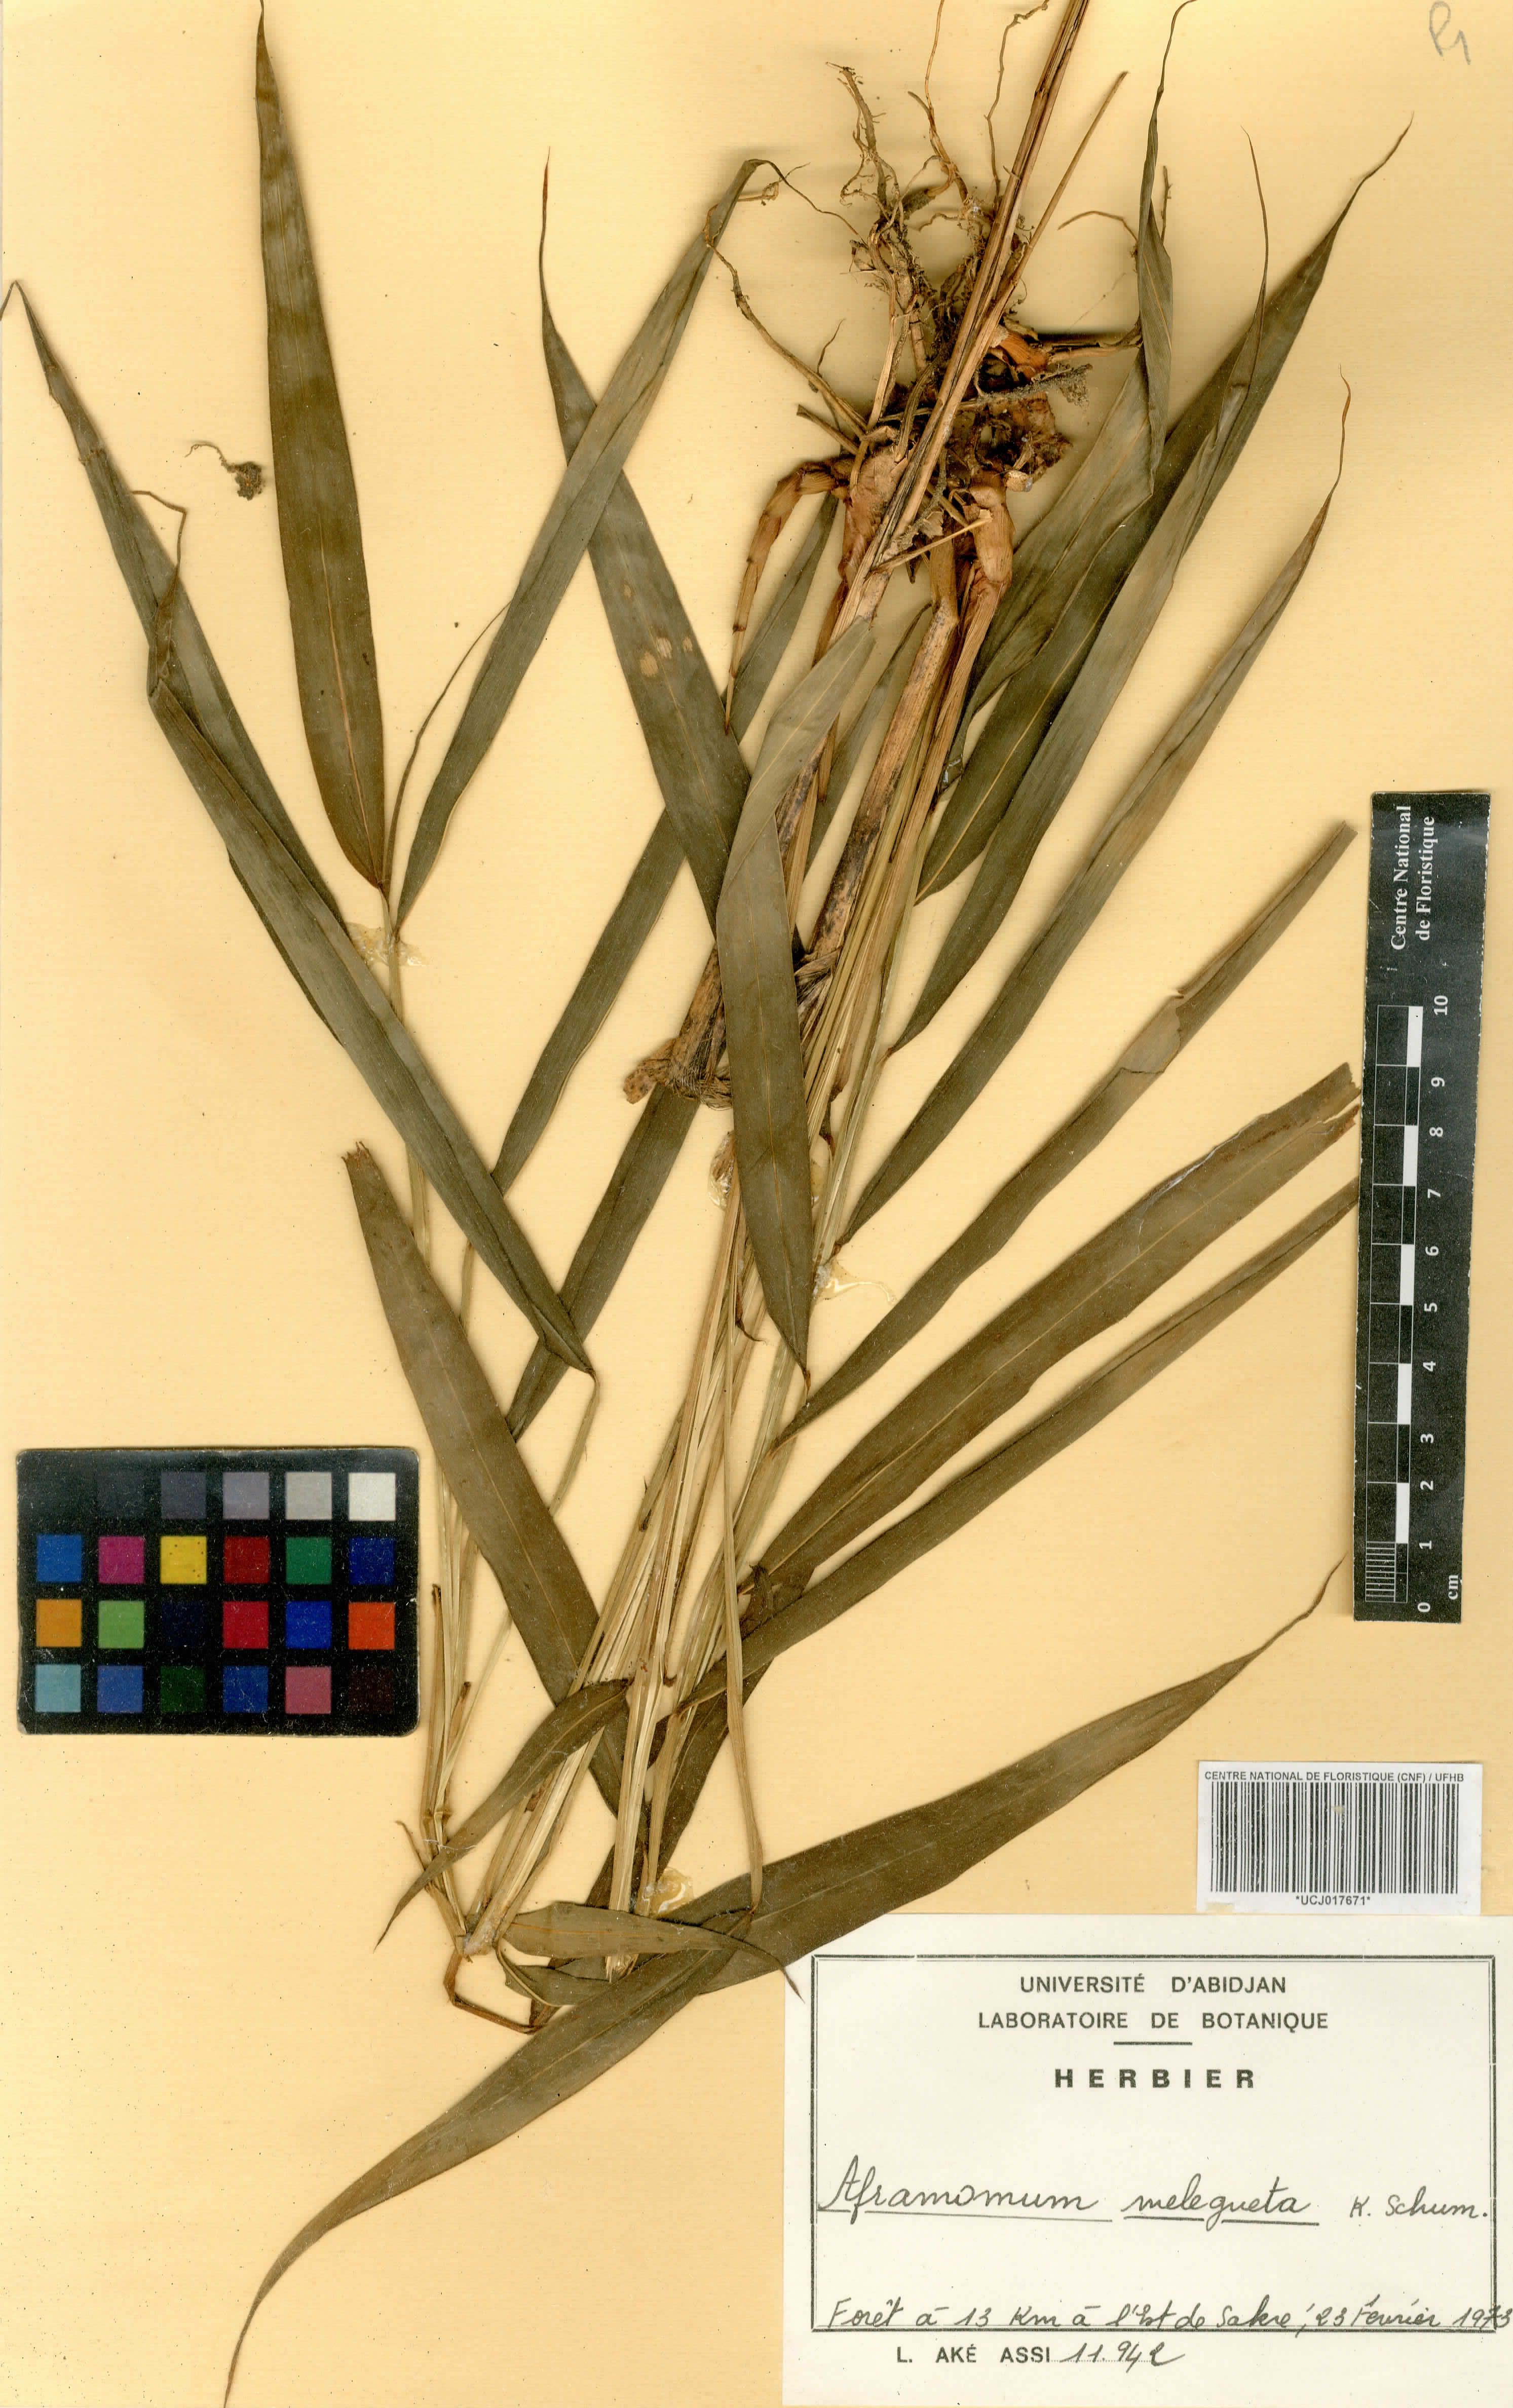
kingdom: Plantae
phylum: Tracheophyta
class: Liliopsida
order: Zingiberales
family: Zingiberaceae
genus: Aframomum
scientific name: Aframomum melegueta
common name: Grains of paradise
